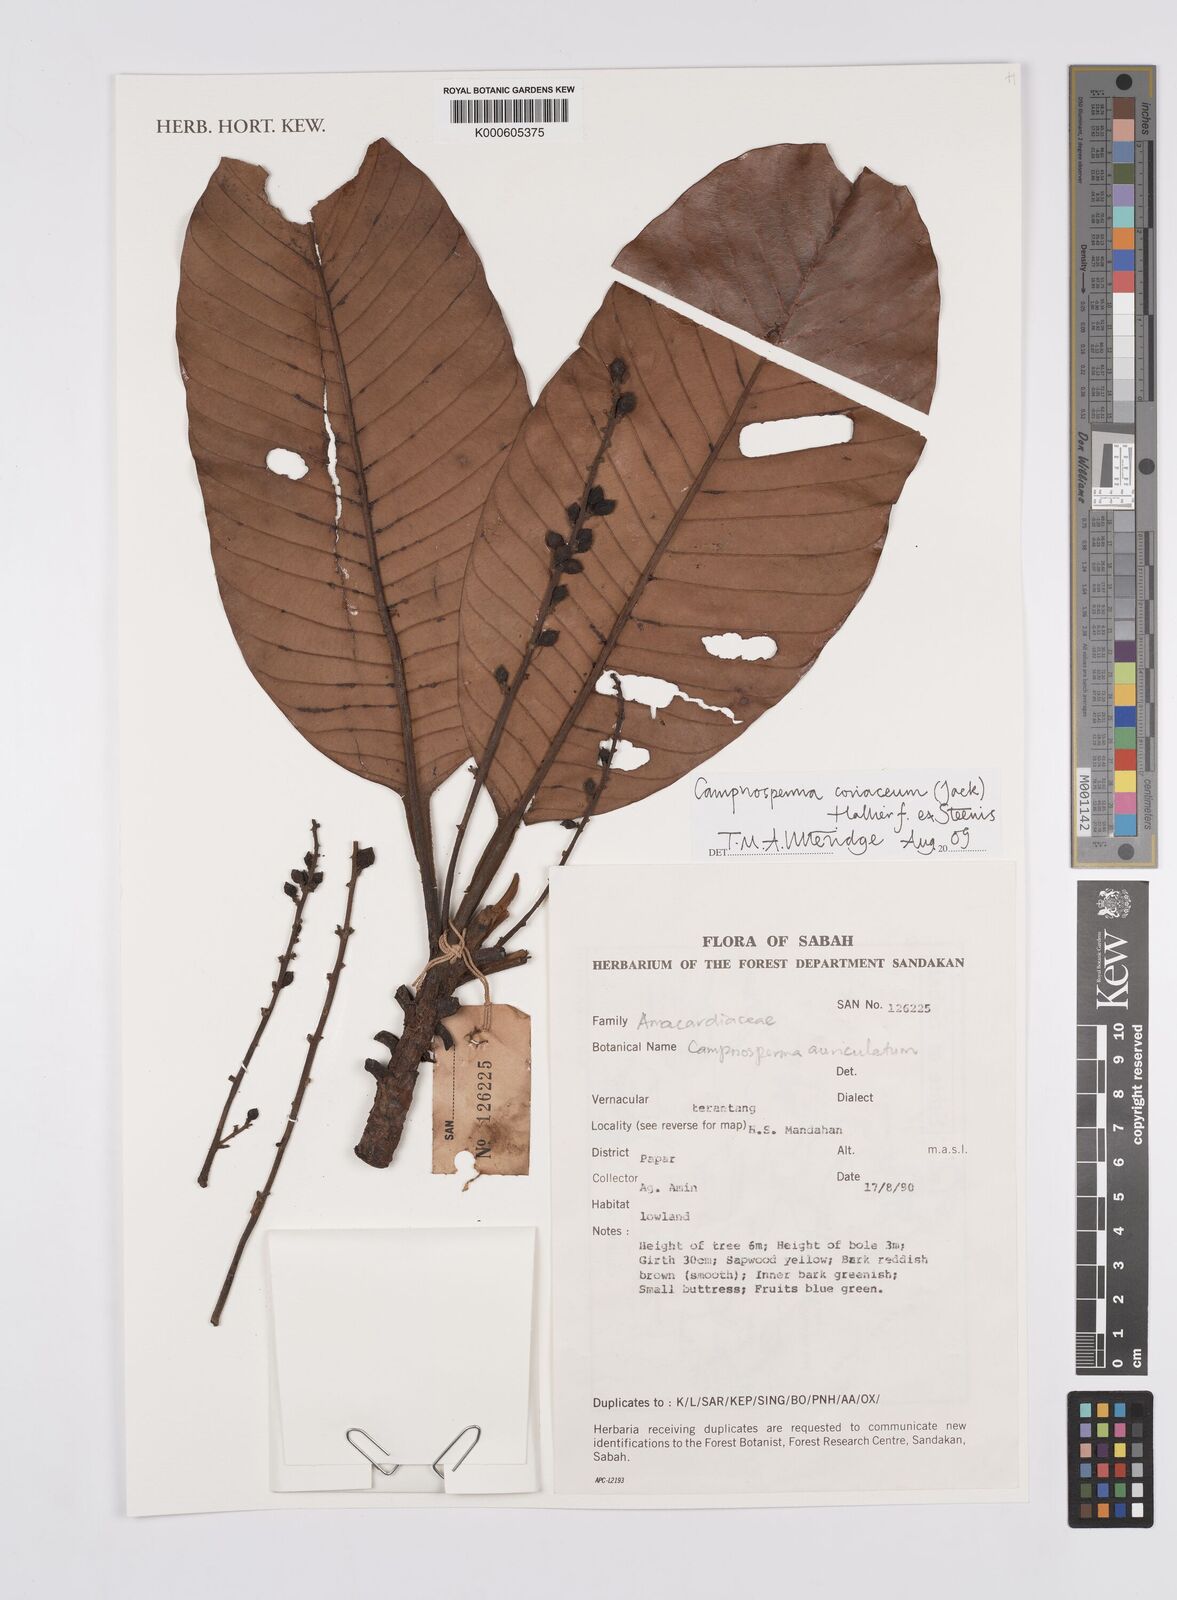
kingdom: Plantae
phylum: Tracheophyta
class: Magnoliopsida
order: Sapindales
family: Anacardiaceae
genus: Campnosperma
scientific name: Campnosperma
